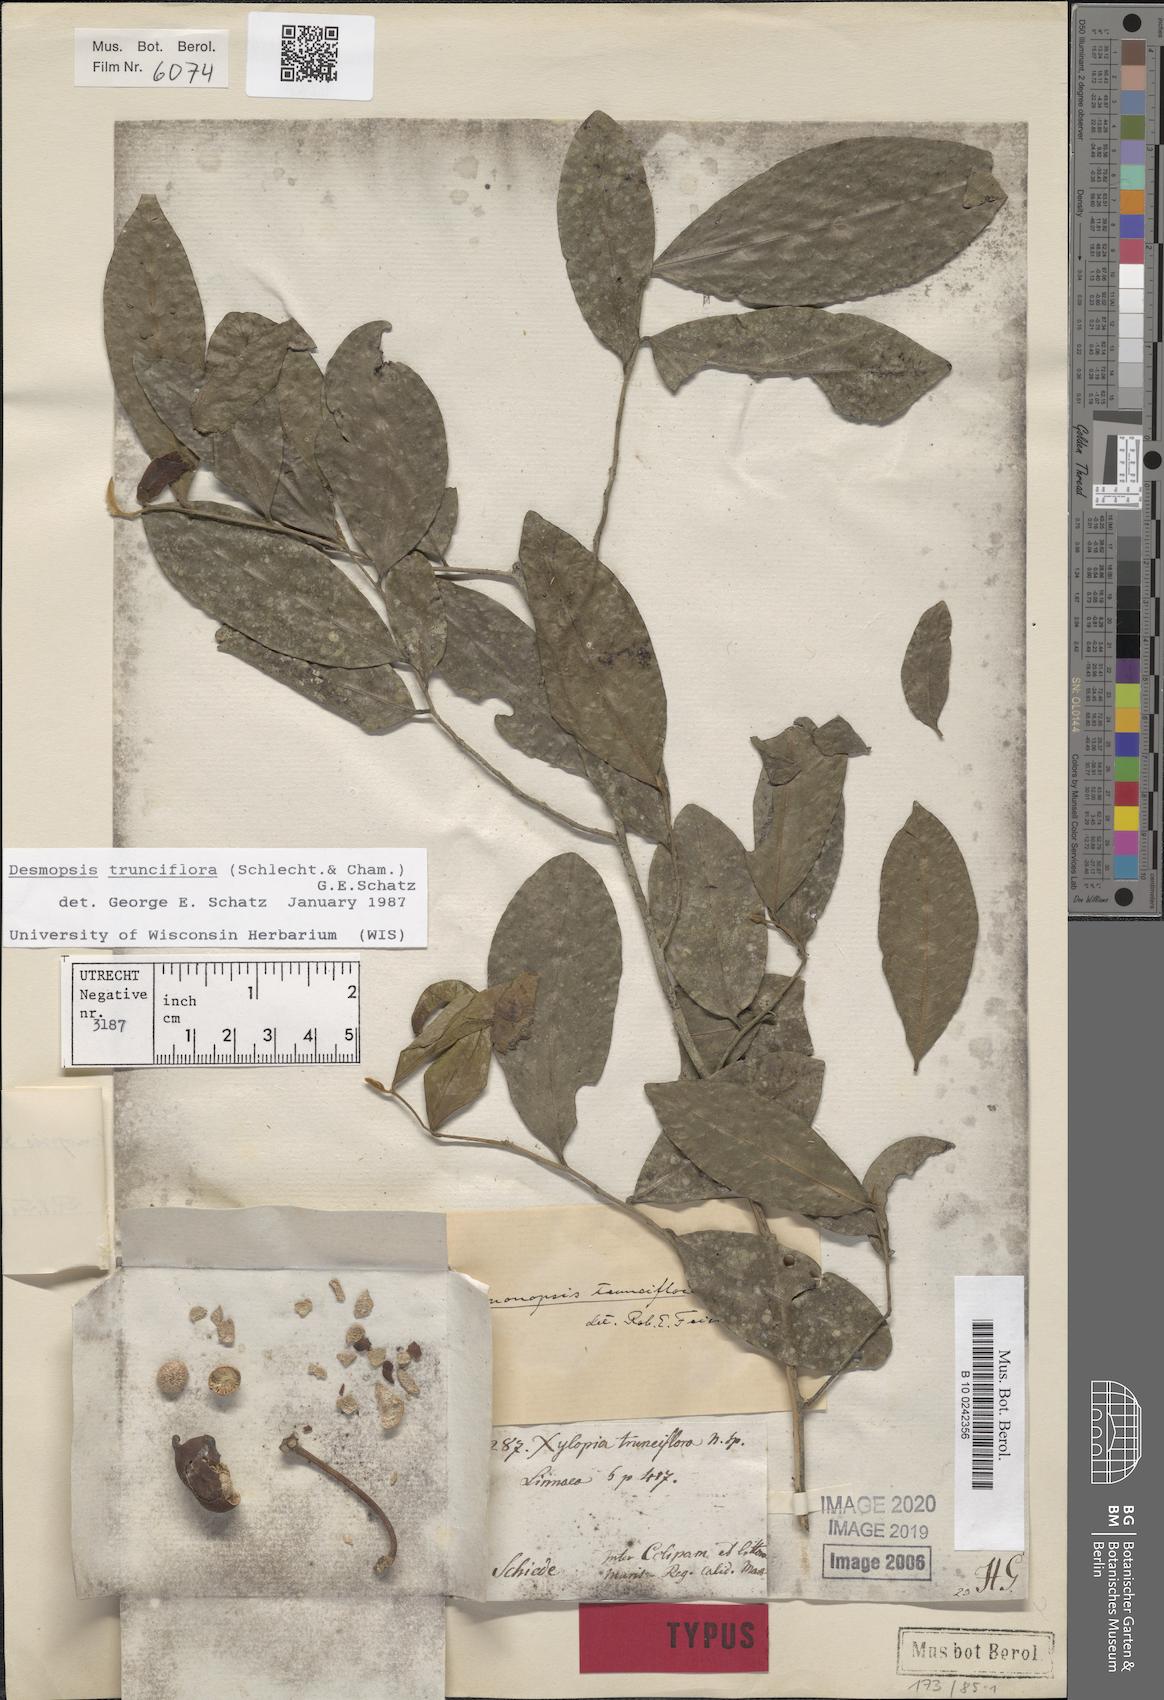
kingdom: Plantae
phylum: Tracheophyta
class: Magnoliopsida
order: Magnoliales
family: Annonaceae
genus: Desmopsis
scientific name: Desmopsis trunciflora
